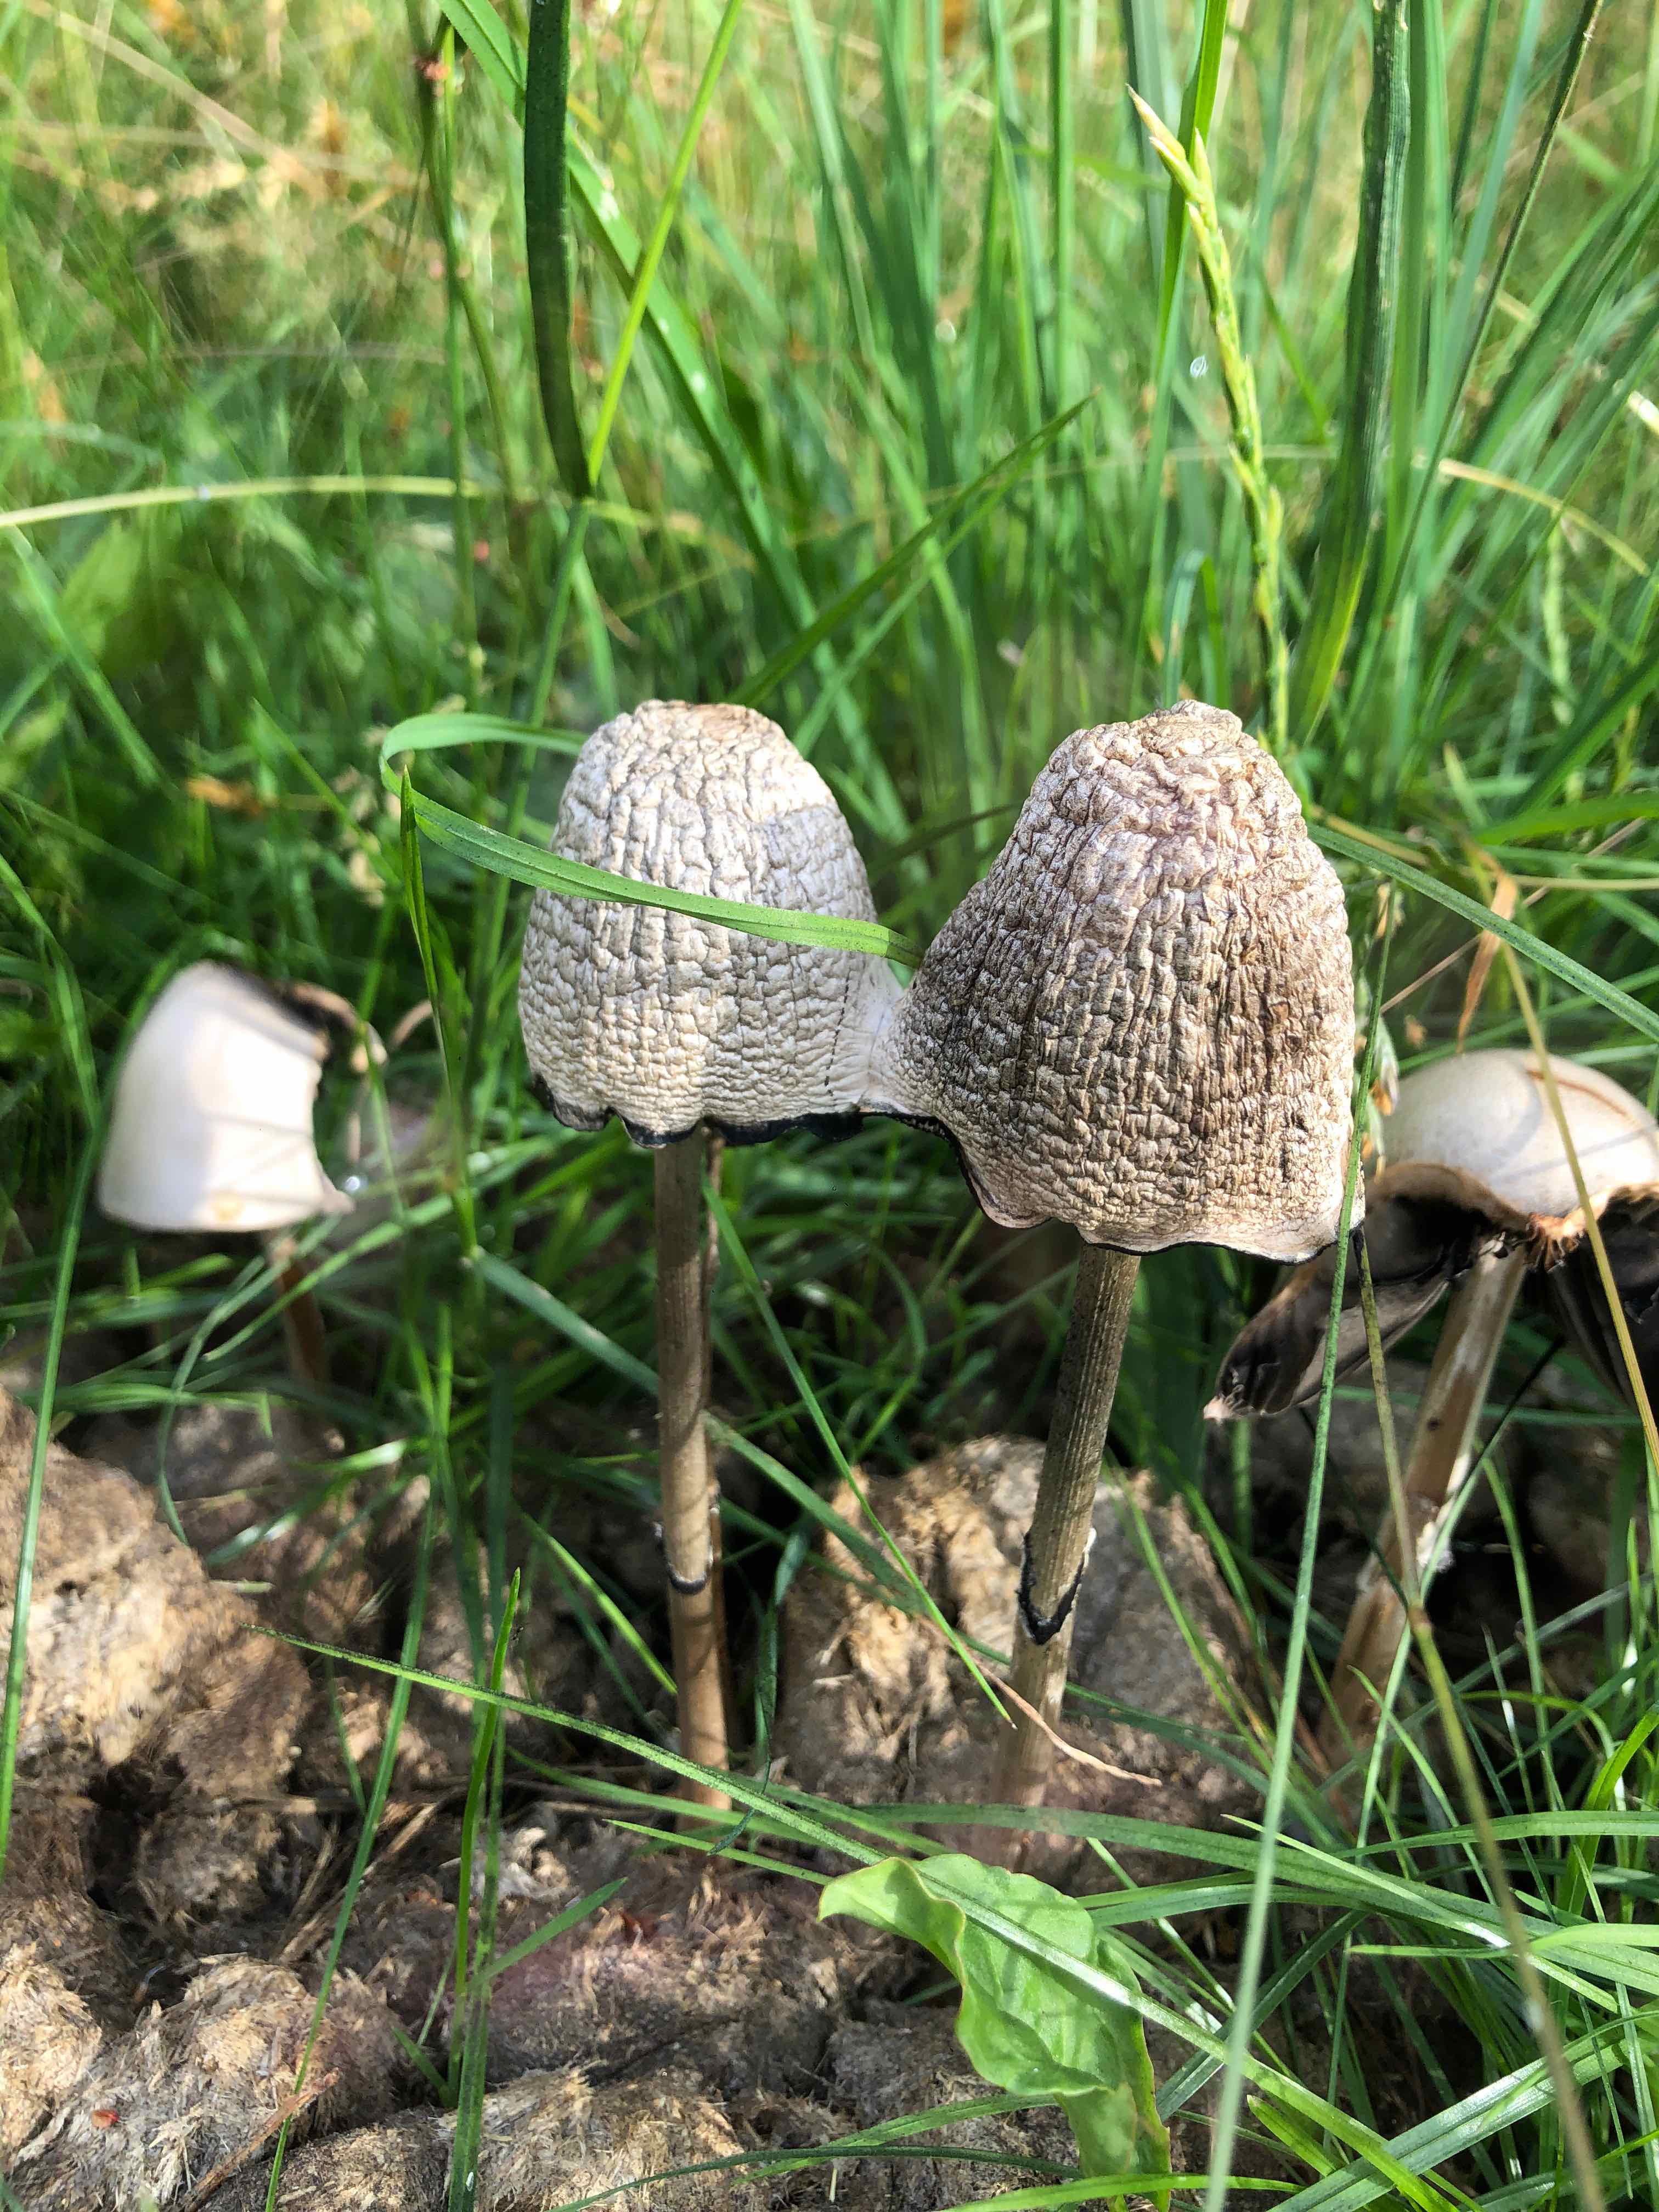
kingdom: Fungi
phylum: Basidiomycota
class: Agaricomycetes
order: Agaricales
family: Bolbitiaceae
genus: Panaeolus
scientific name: Panaeolus semiovatus
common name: ring-glanshat
